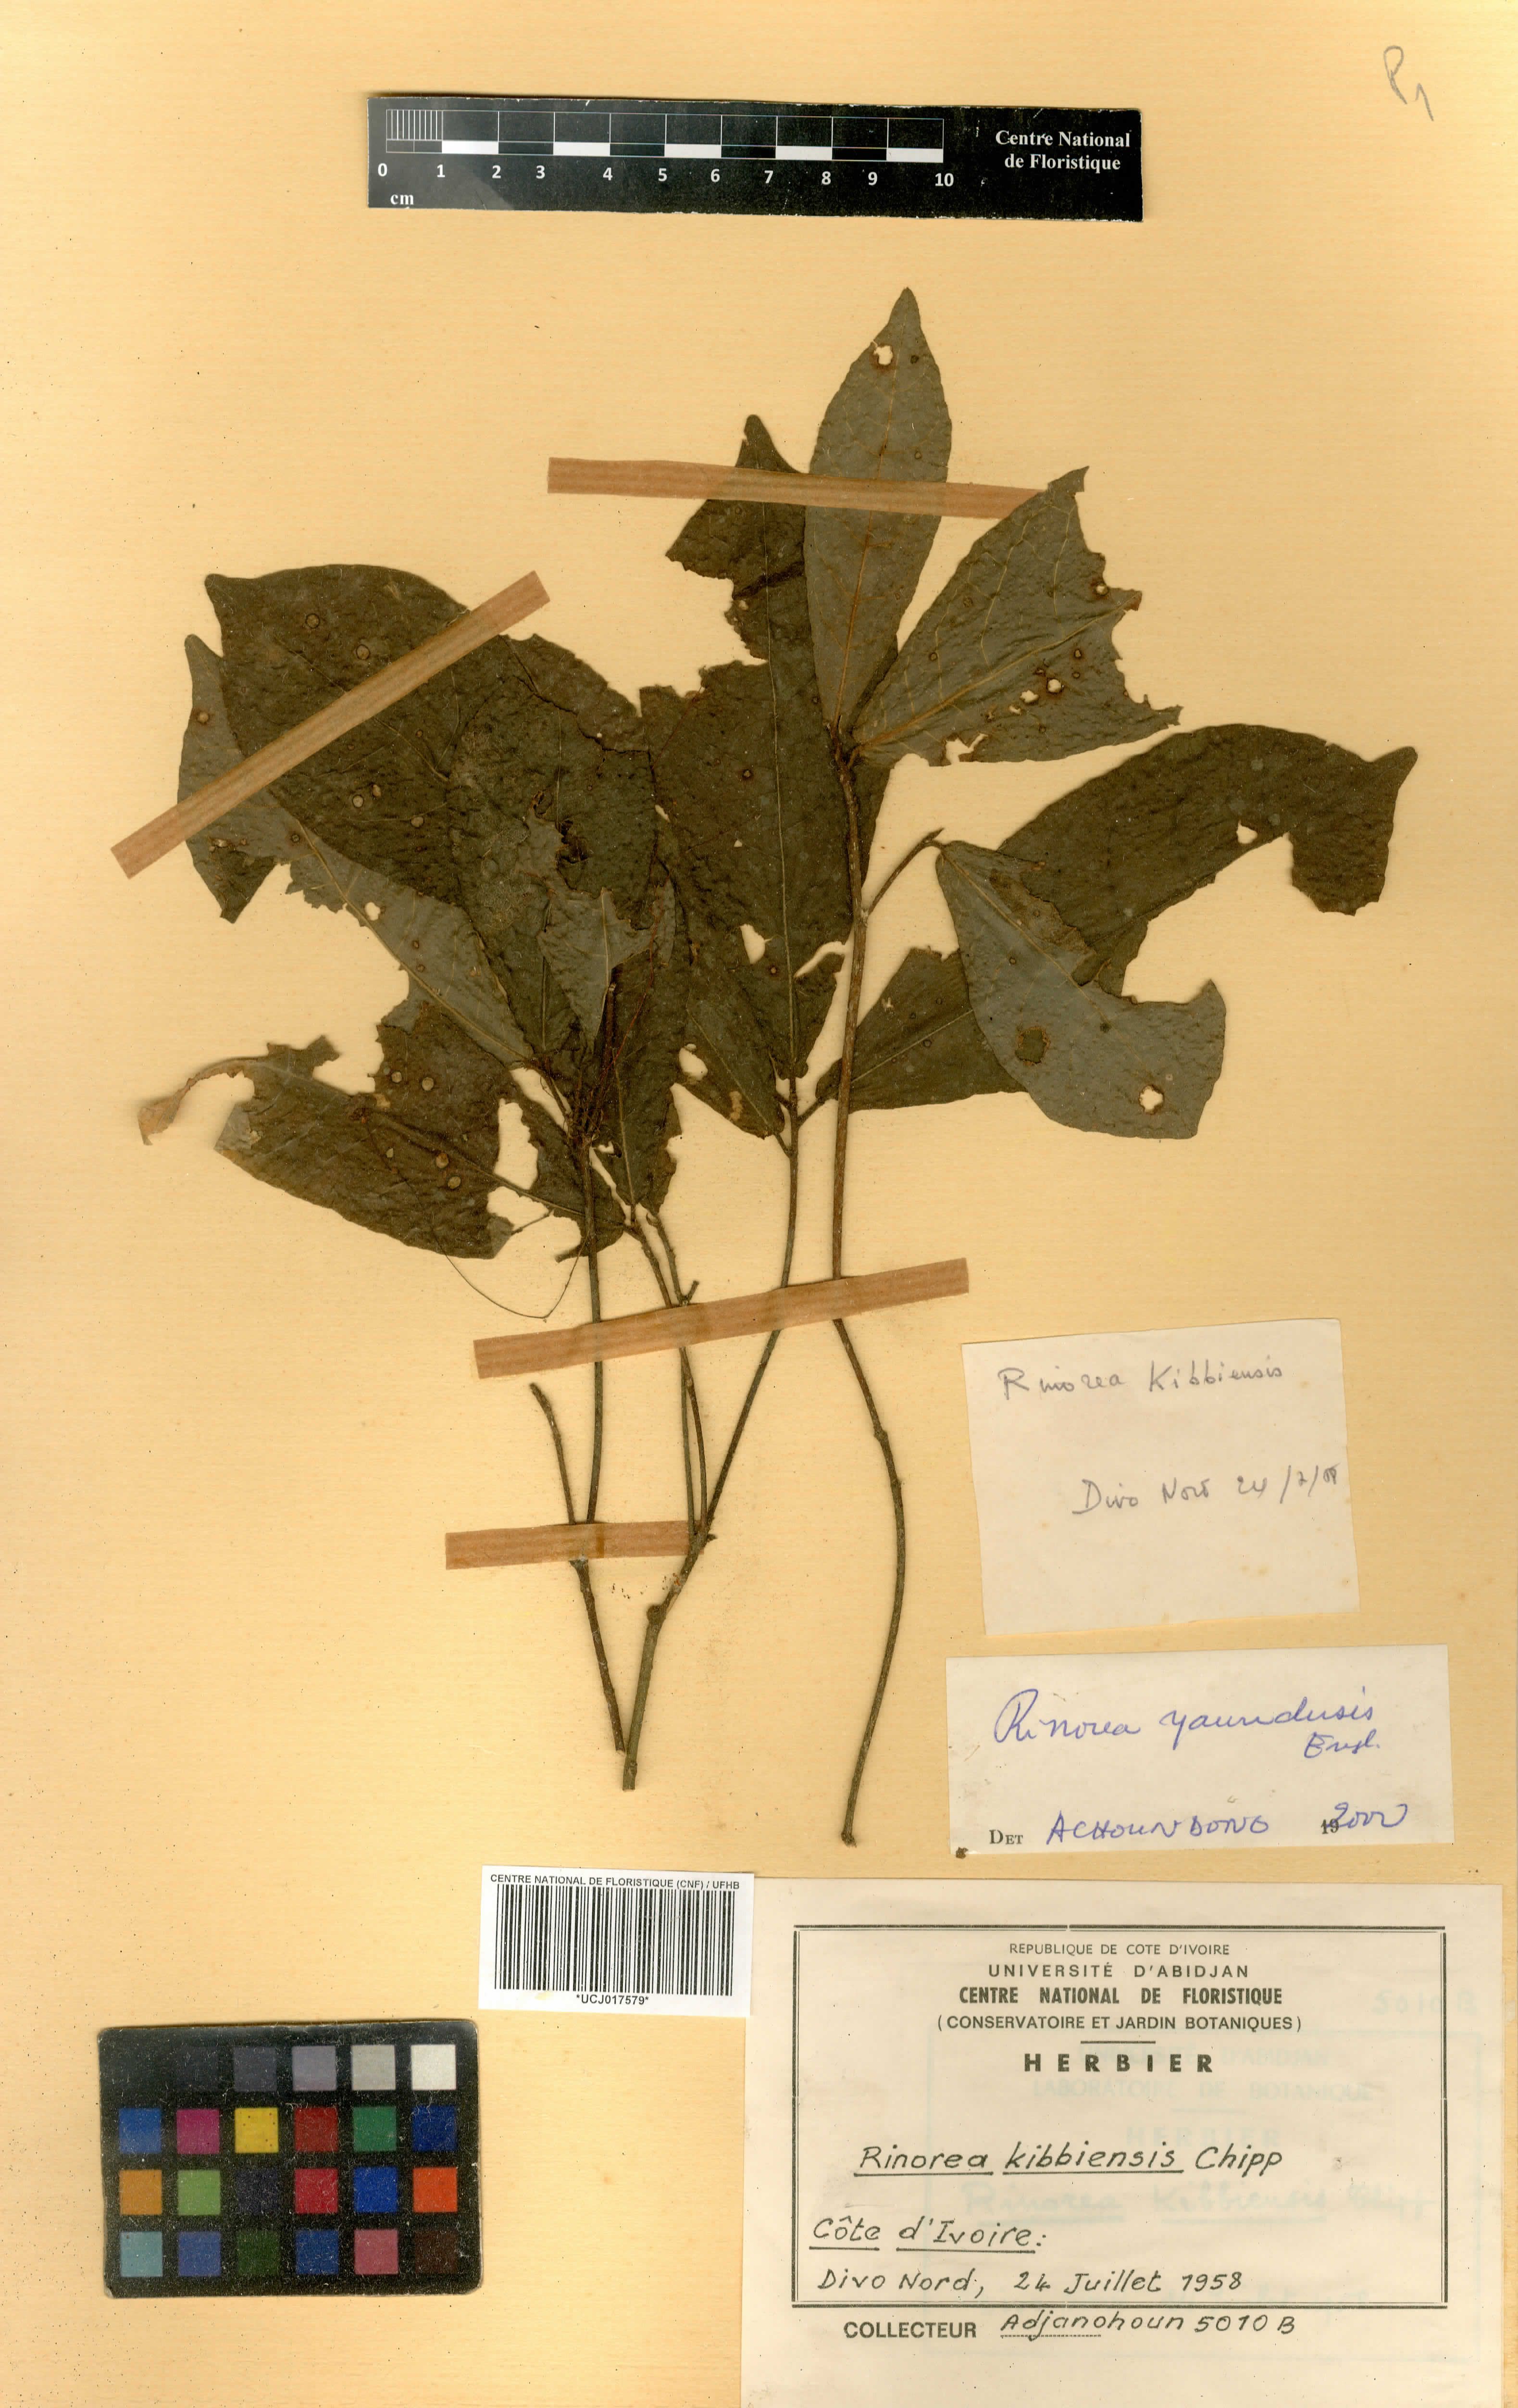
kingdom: Plantae
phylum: Tracheophyta
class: Magnoliopsida
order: Malpighiales
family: Violaceae
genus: Rinorea
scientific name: Rinorea kibbiensis
